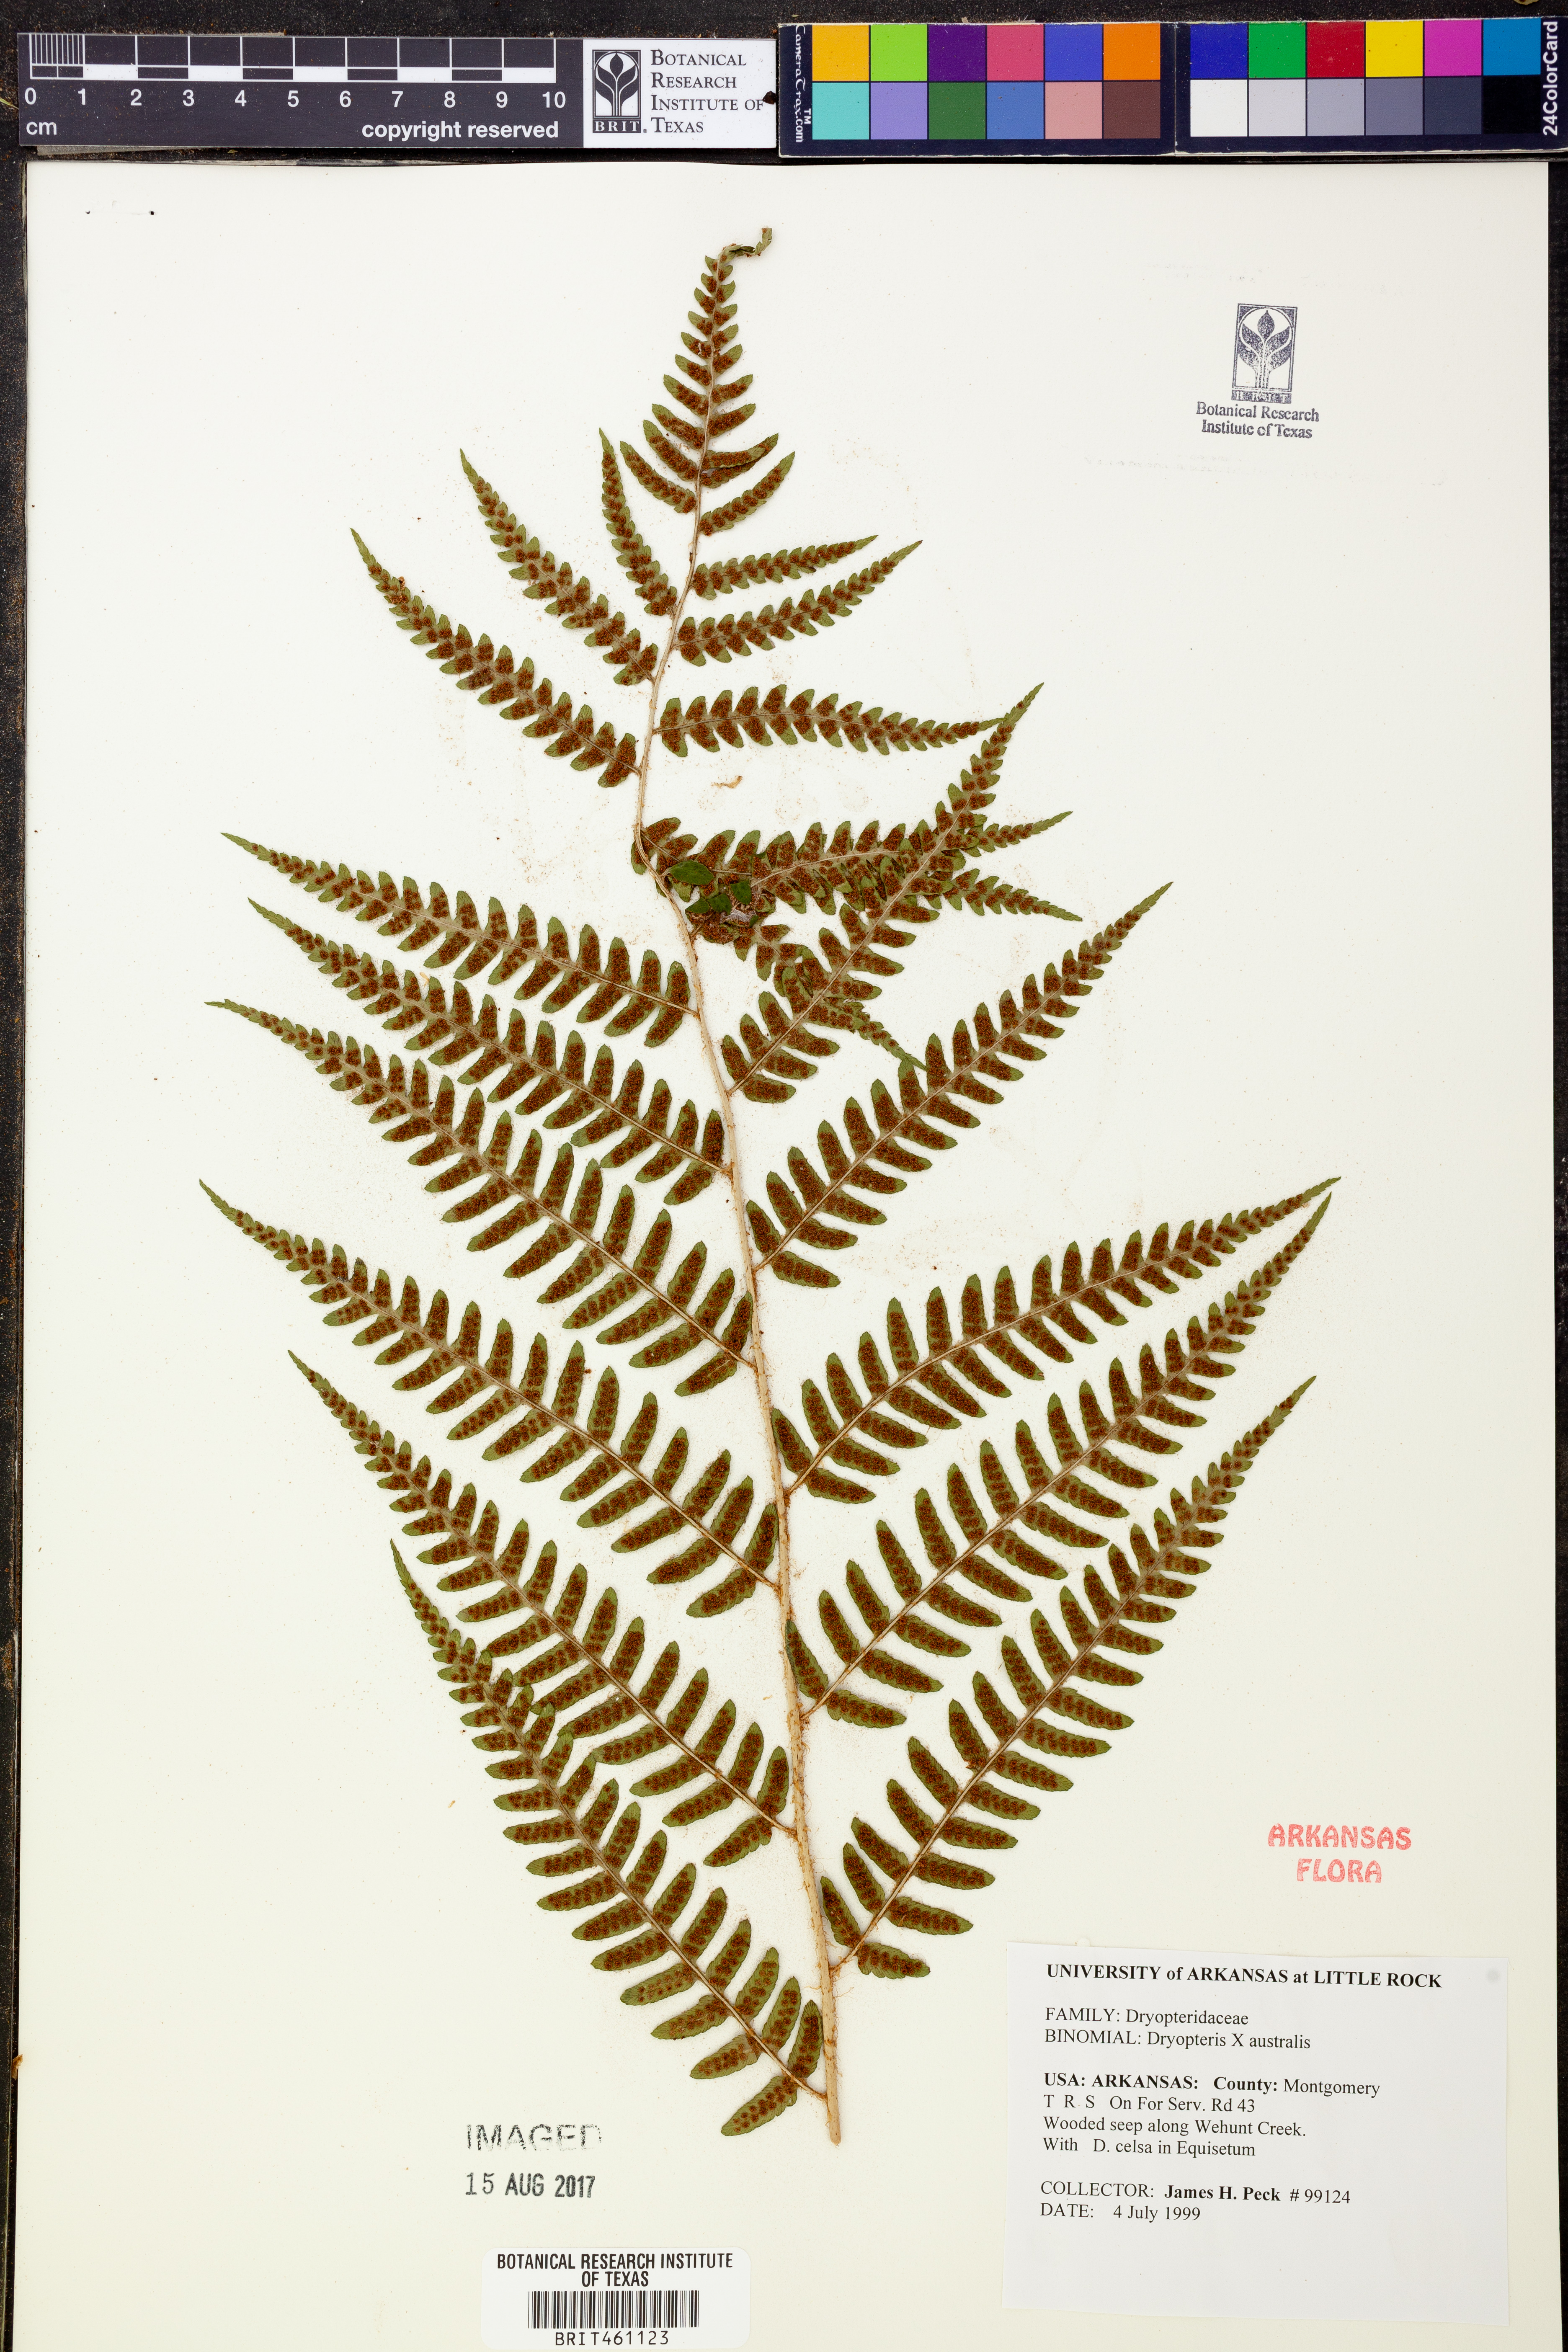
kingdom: Plantae
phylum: Tracheophyta
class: Polypodiopsida
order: Polypodiales
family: Dryopteridaceae
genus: Dryopteris
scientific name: Dryopteris
